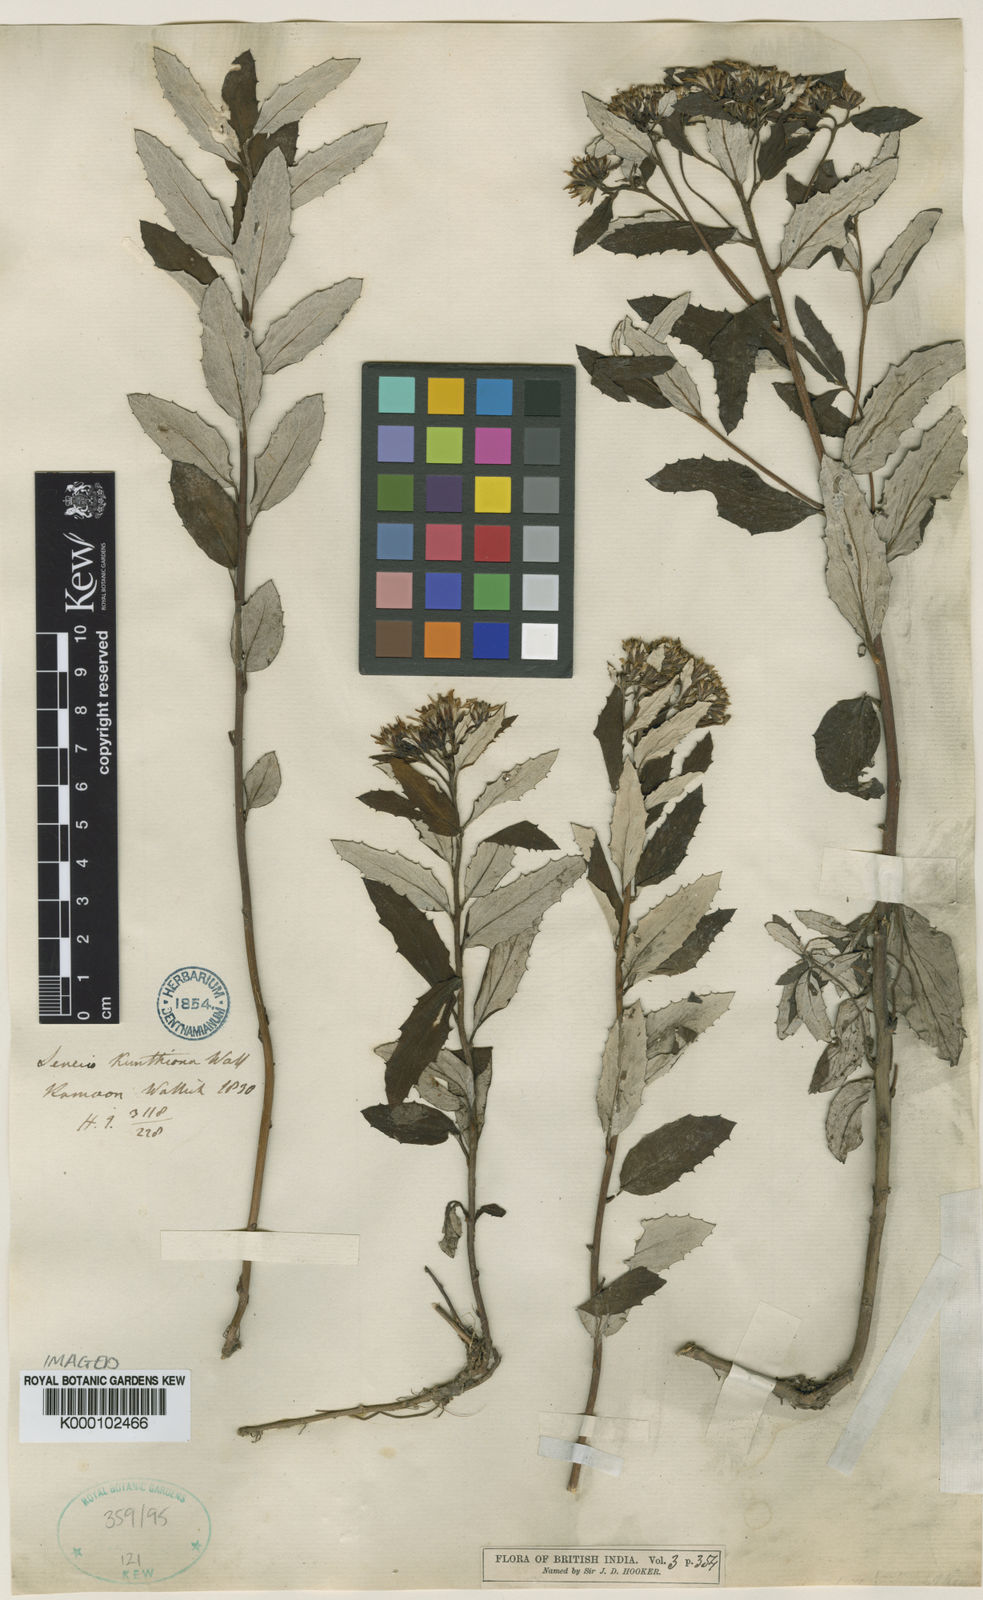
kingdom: Plantae
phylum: Tracheophyta
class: Magnoliopsida
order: Asterales
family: Asteraceae
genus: Synotis
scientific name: Synotis kunthiana
